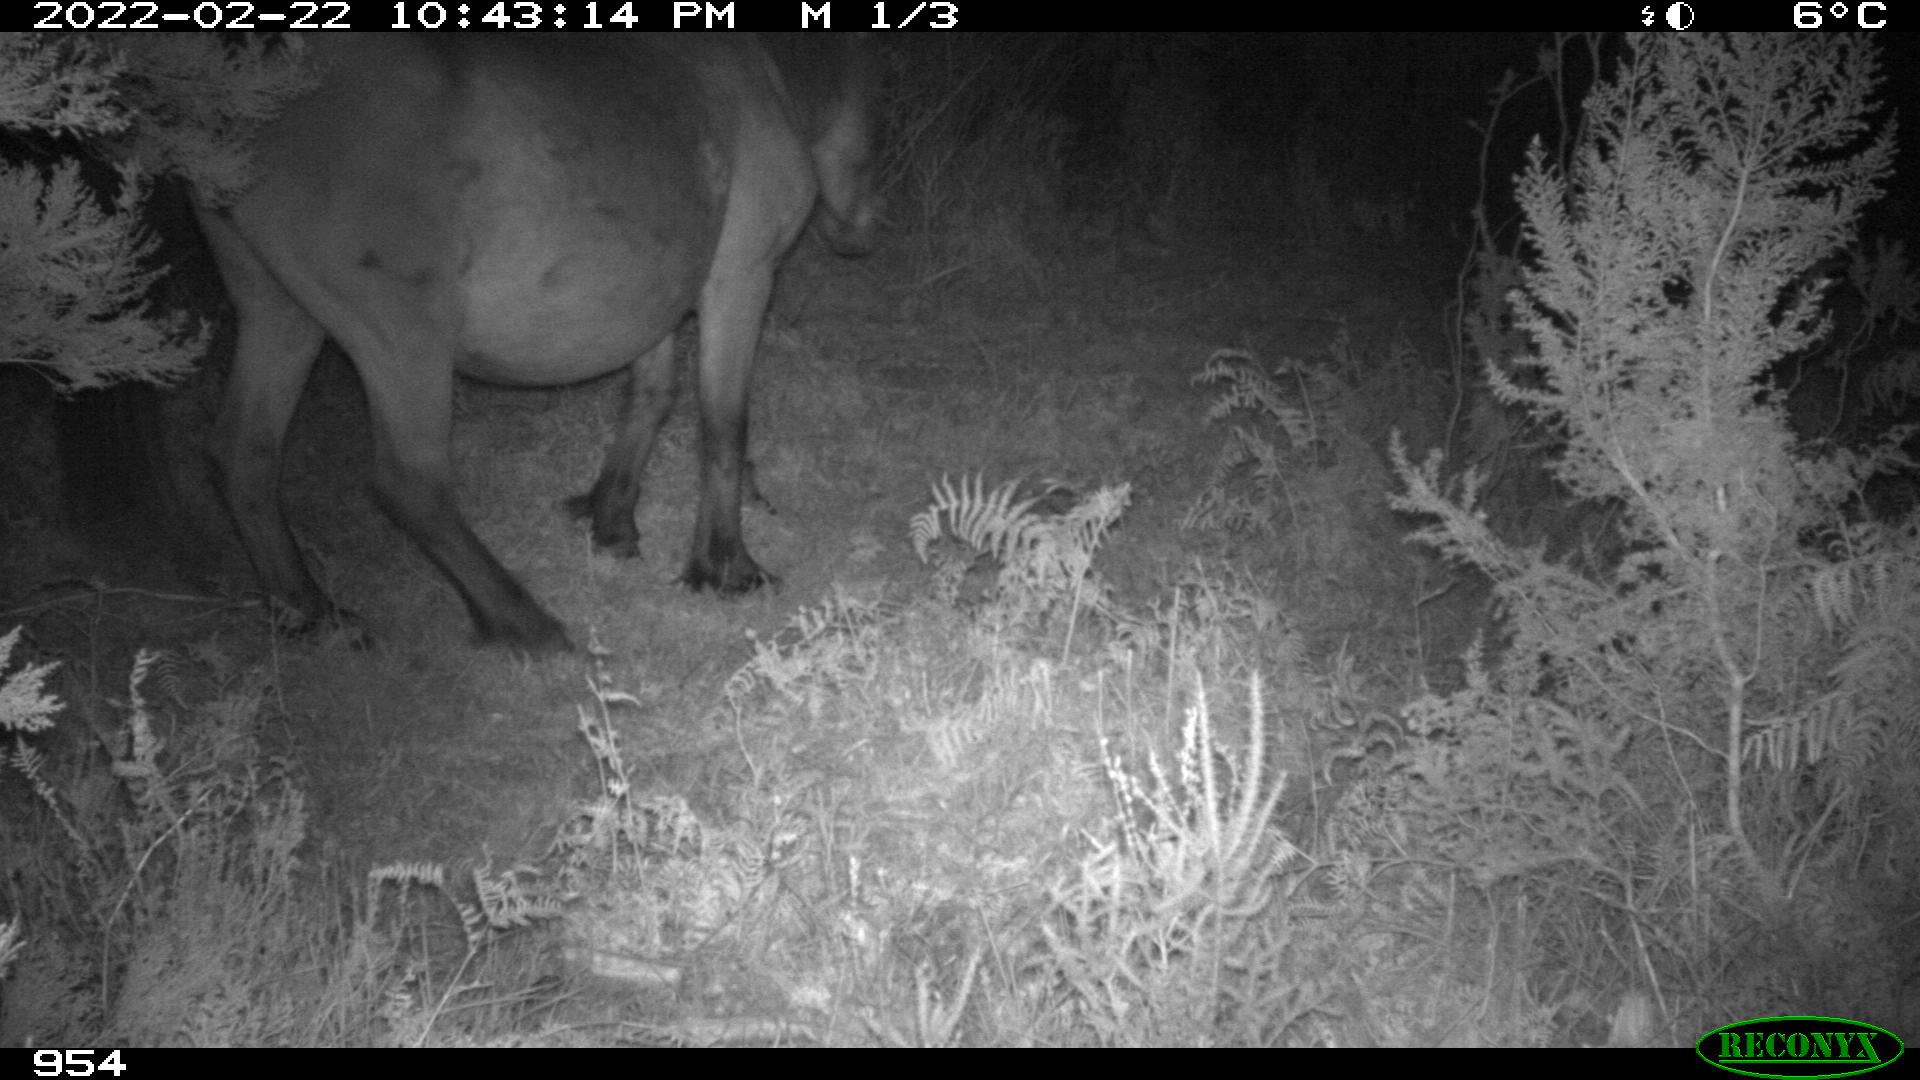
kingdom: Animalia
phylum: Chordata
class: Mammalia
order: Perissodactyla
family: Equidae
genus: Equus
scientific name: Equus caballus
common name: Horse
